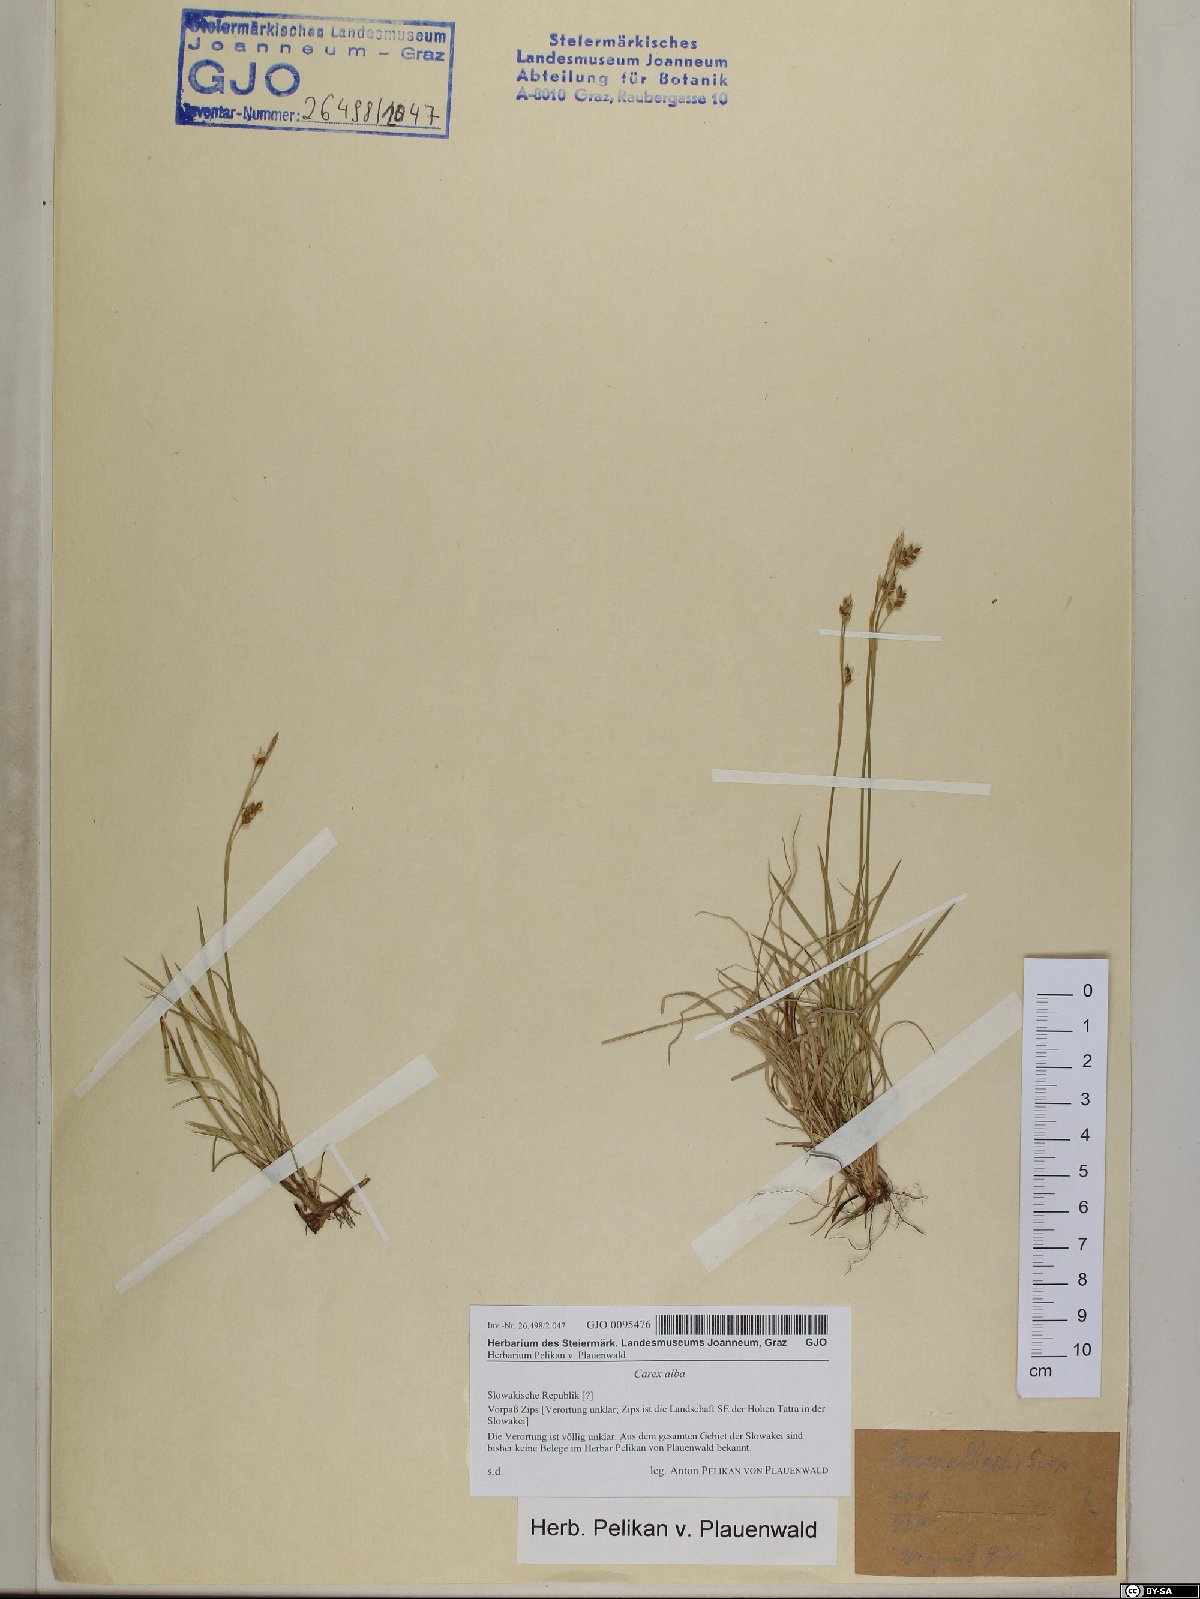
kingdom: Plantae
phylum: Tracheophyta
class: Liliopsida
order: Poales
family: Cyperaceae
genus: Carex
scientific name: Carex alba
